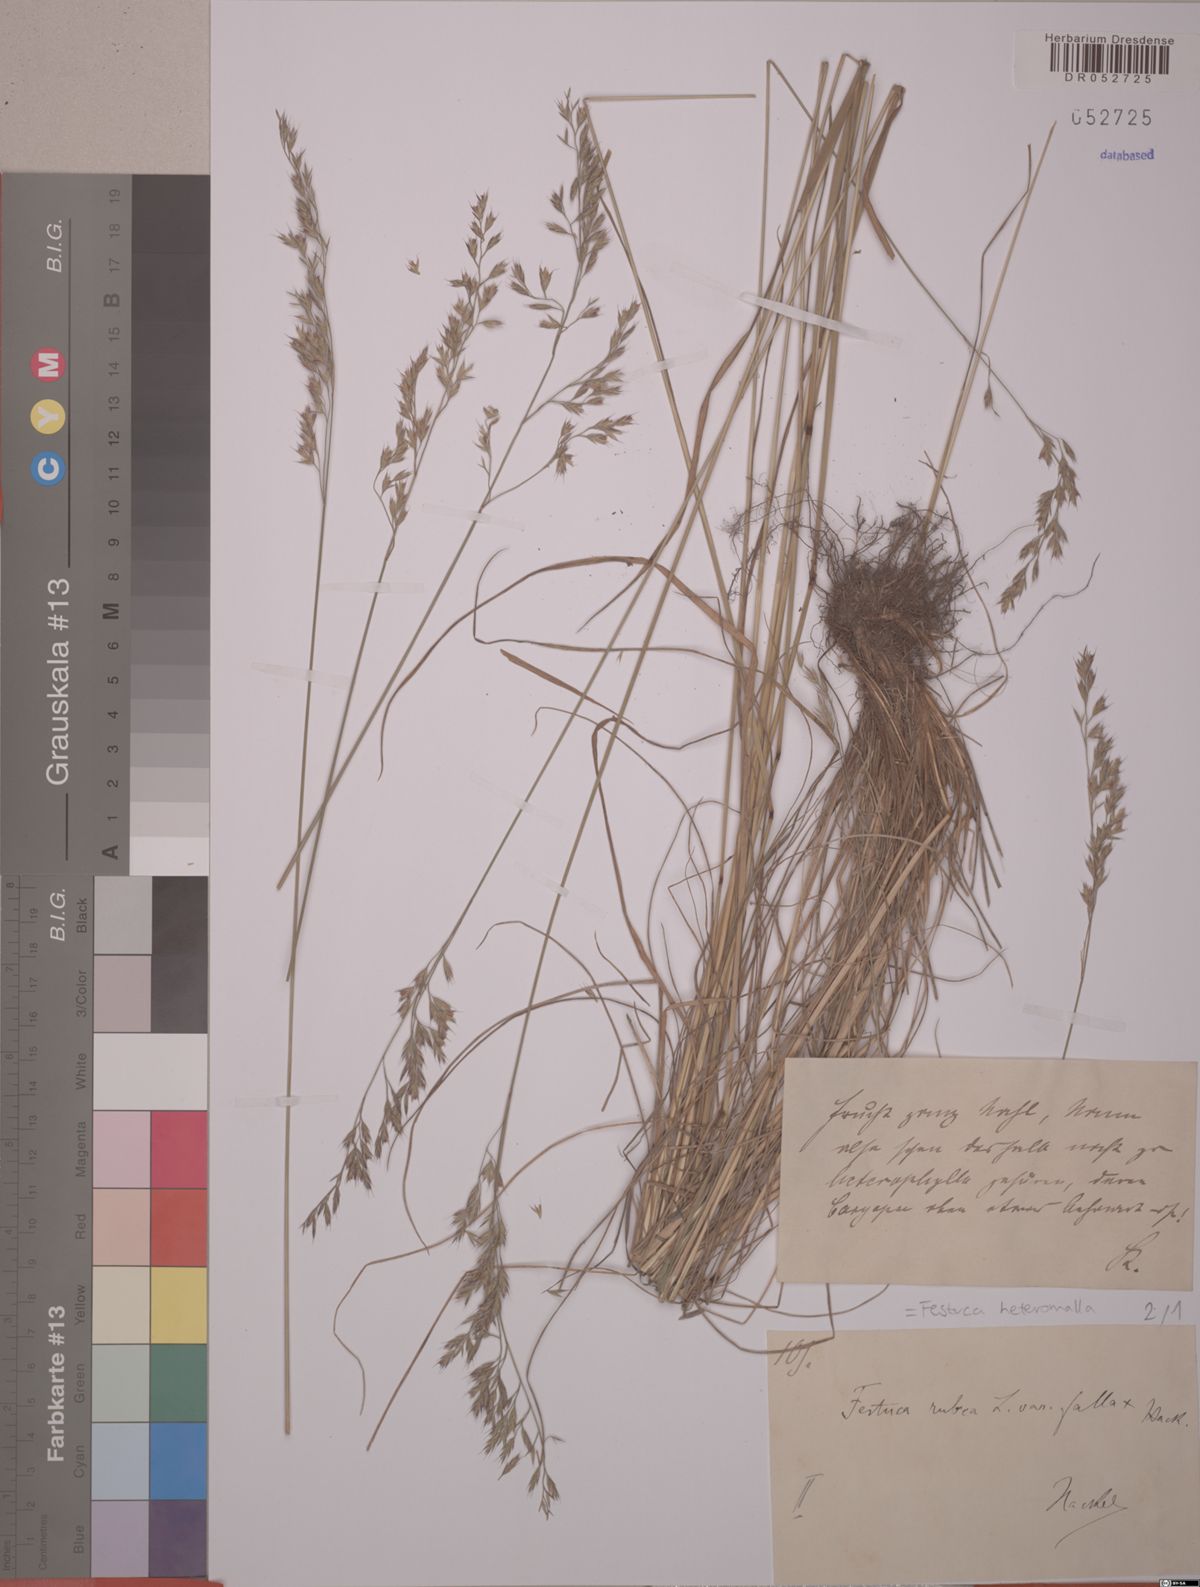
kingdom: Plantae
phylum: Tracheophyta
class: Liliopsida
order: Poales
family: Poaceae
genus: Festuca
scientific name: Festuca heteromalla
